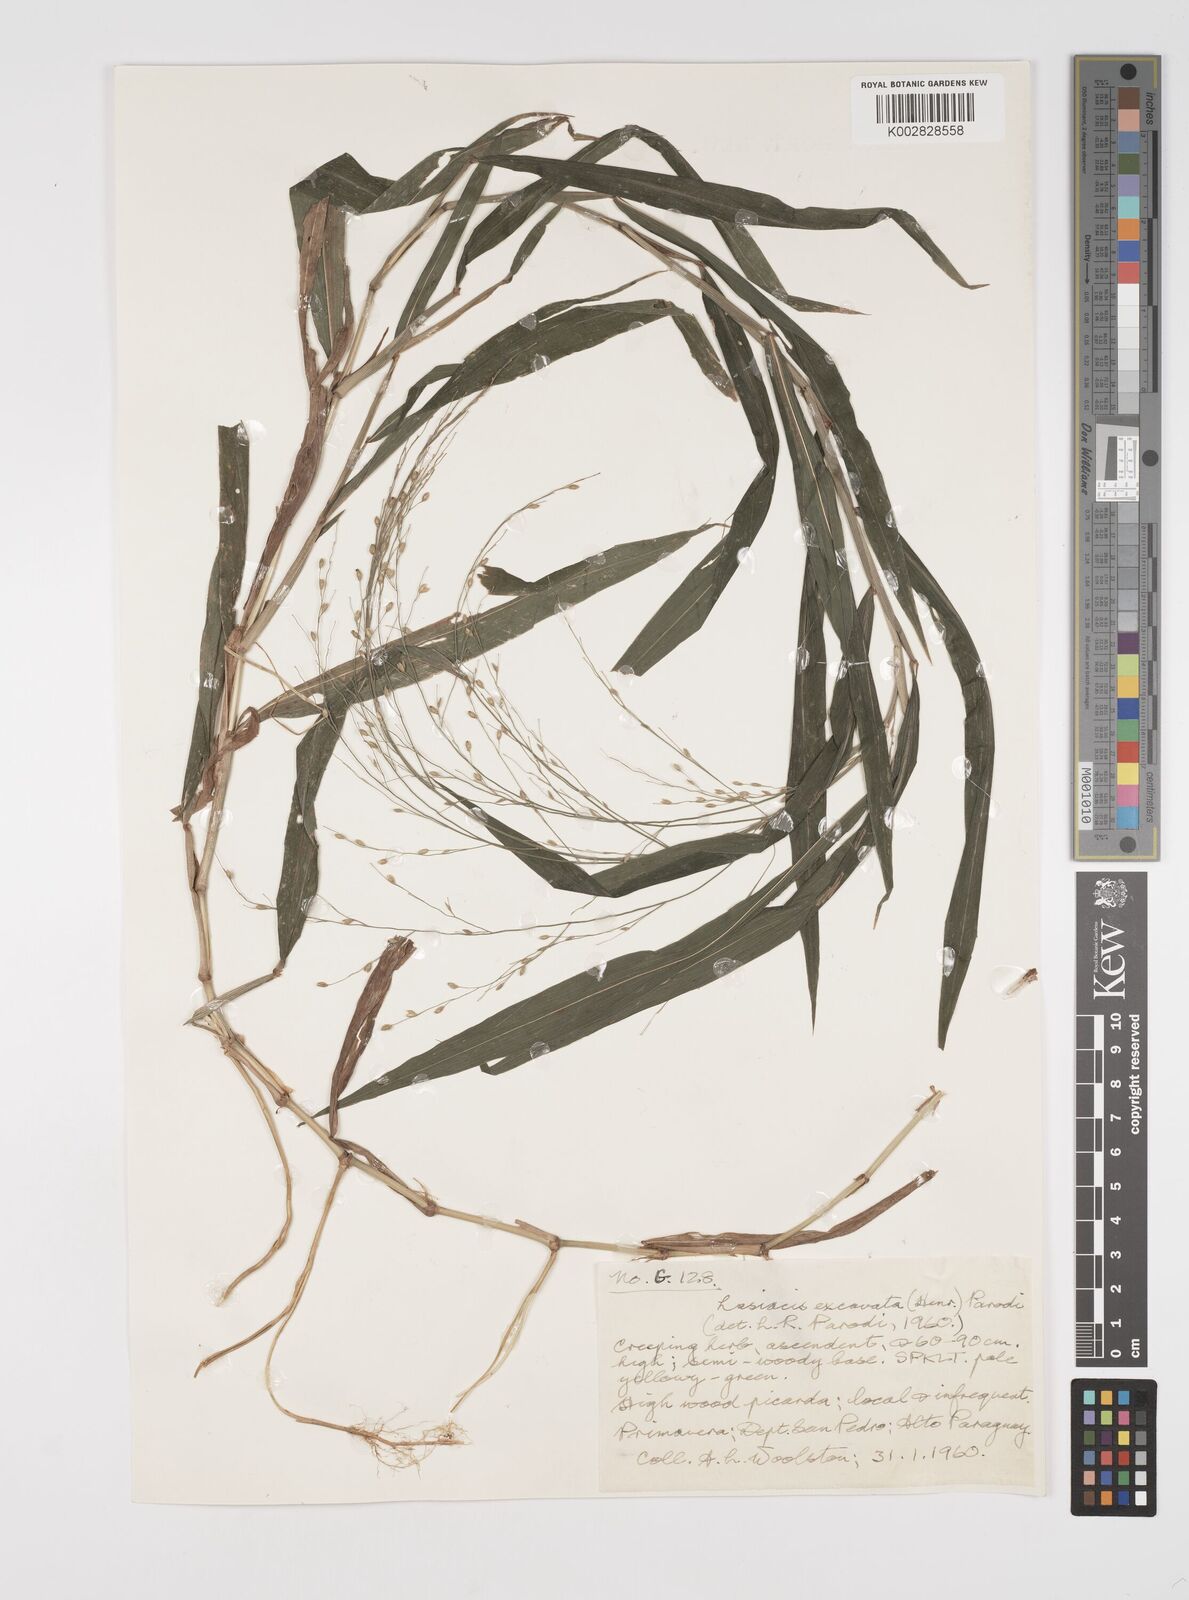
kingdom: Plantae
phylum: Tracheophyta
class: Liliopsida
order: Poales
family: Poaceae
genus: Acroceras
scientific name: Acroceras excavatum
